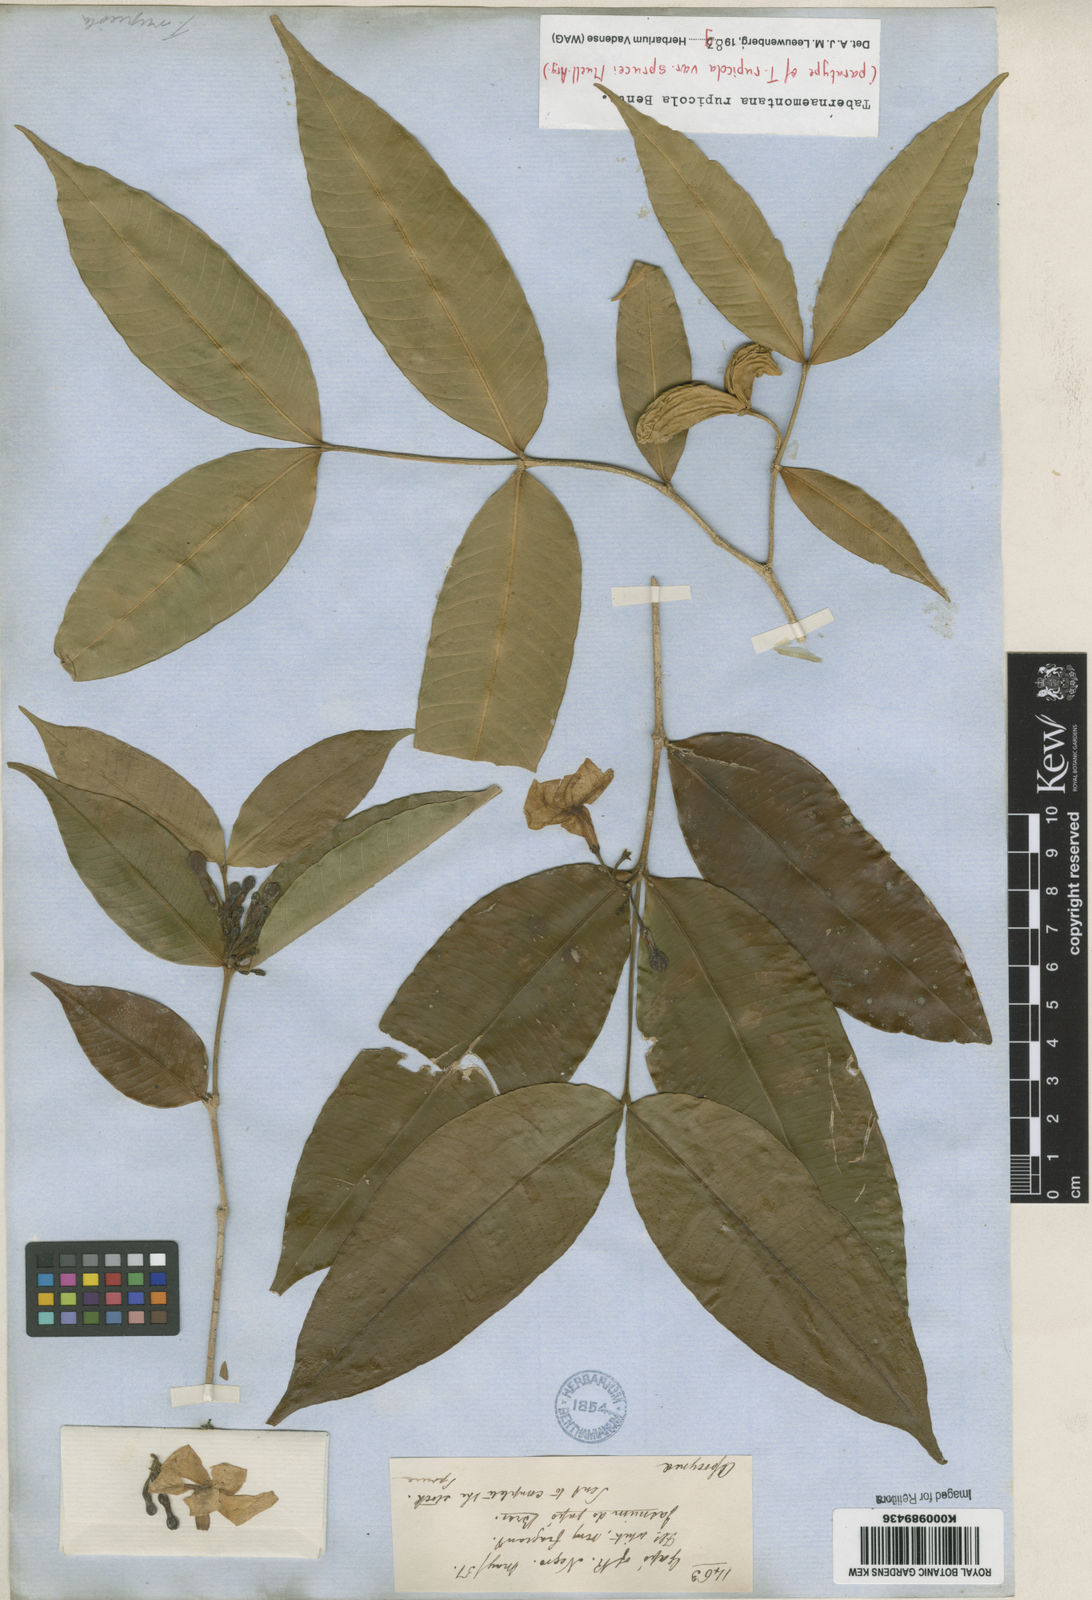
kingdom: Plantae
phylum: Tracheophyta
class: Magnoliopsida
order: Gentianales
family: Apocynaceae
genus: Tabernaemontana
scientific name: Tabernaemontana rupicola
